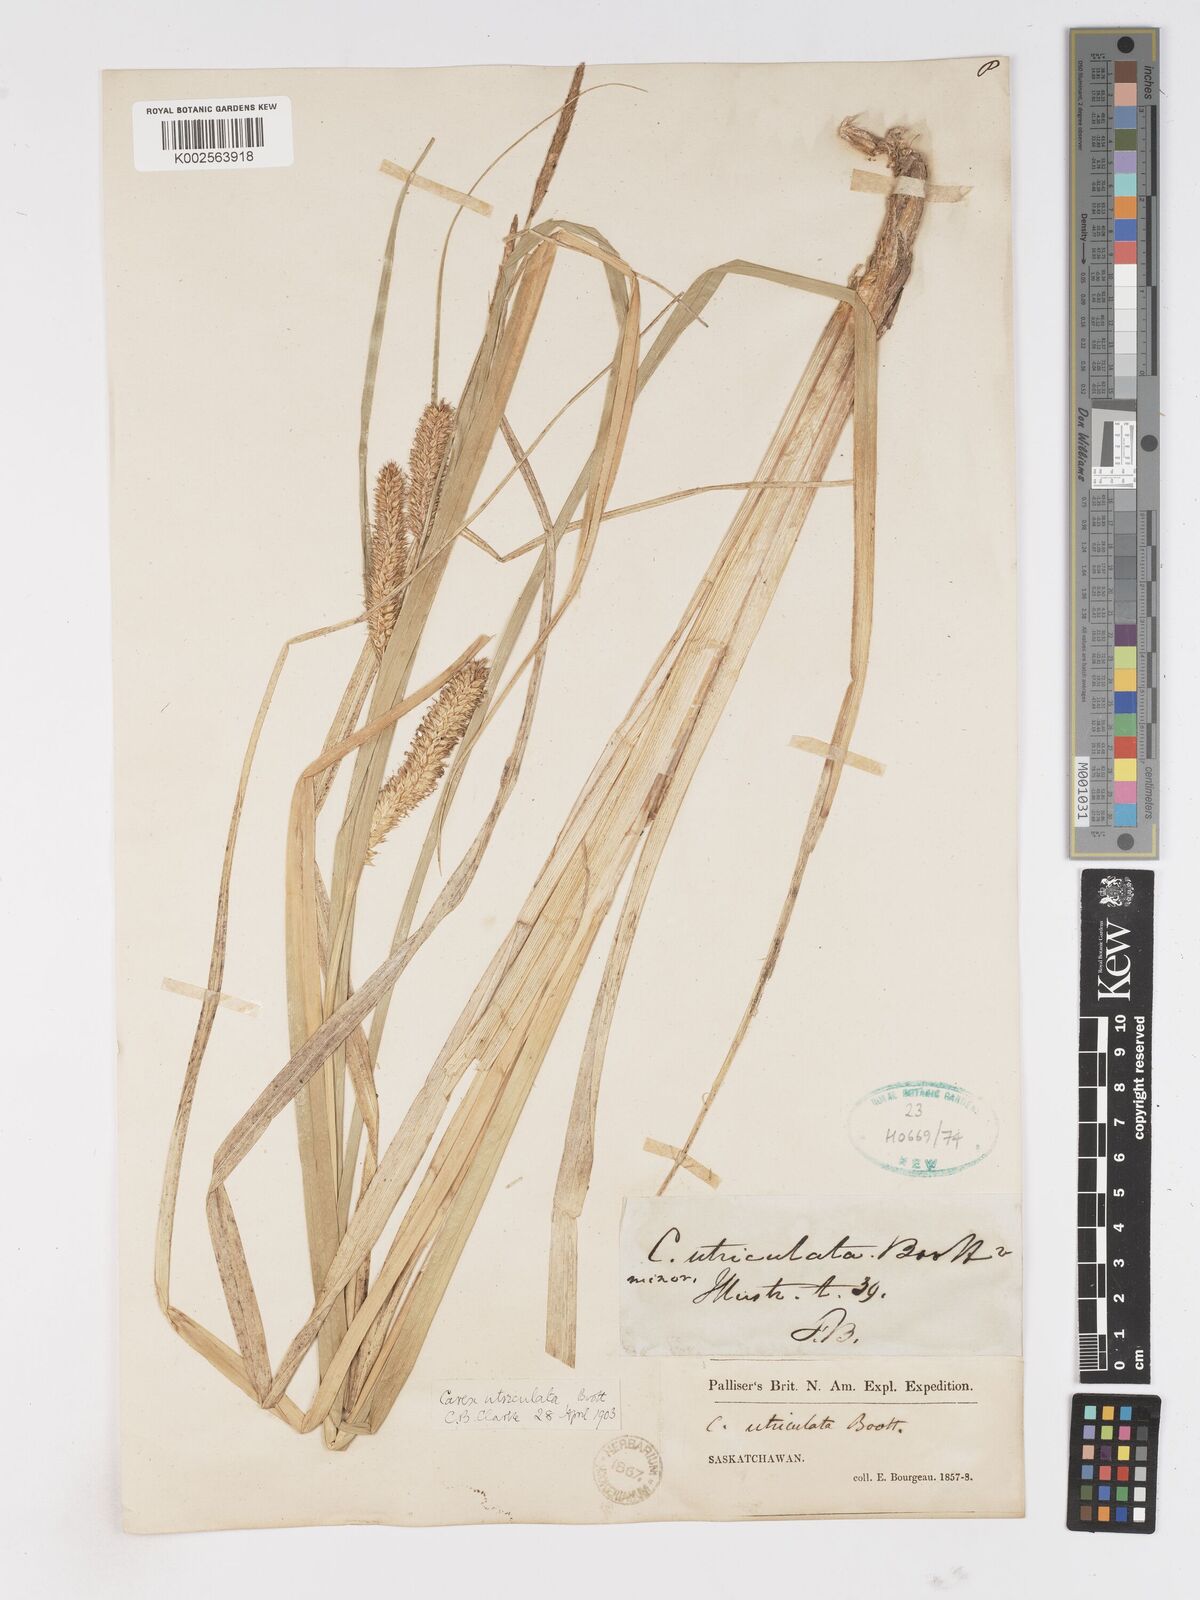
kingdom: Plantae
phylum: Tracheophyta
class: Liliopsida
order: Poales
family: Cyperaceae
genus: Carex
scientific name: Carex rostrata
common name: Bottle sedge
